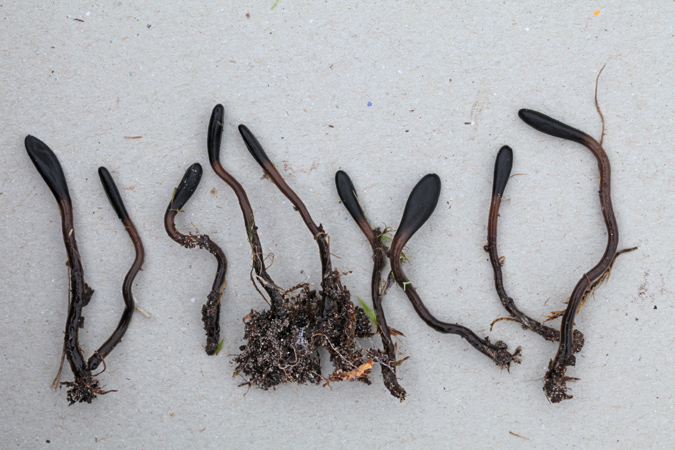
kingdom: Fungi
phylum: Ascomycota
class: Geoglossomycetes
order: Geoglossales
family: Geoglossaceae
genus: Glutinoglossum
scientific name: Glutinoglossum glutinosum
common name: slimet jordtunge
